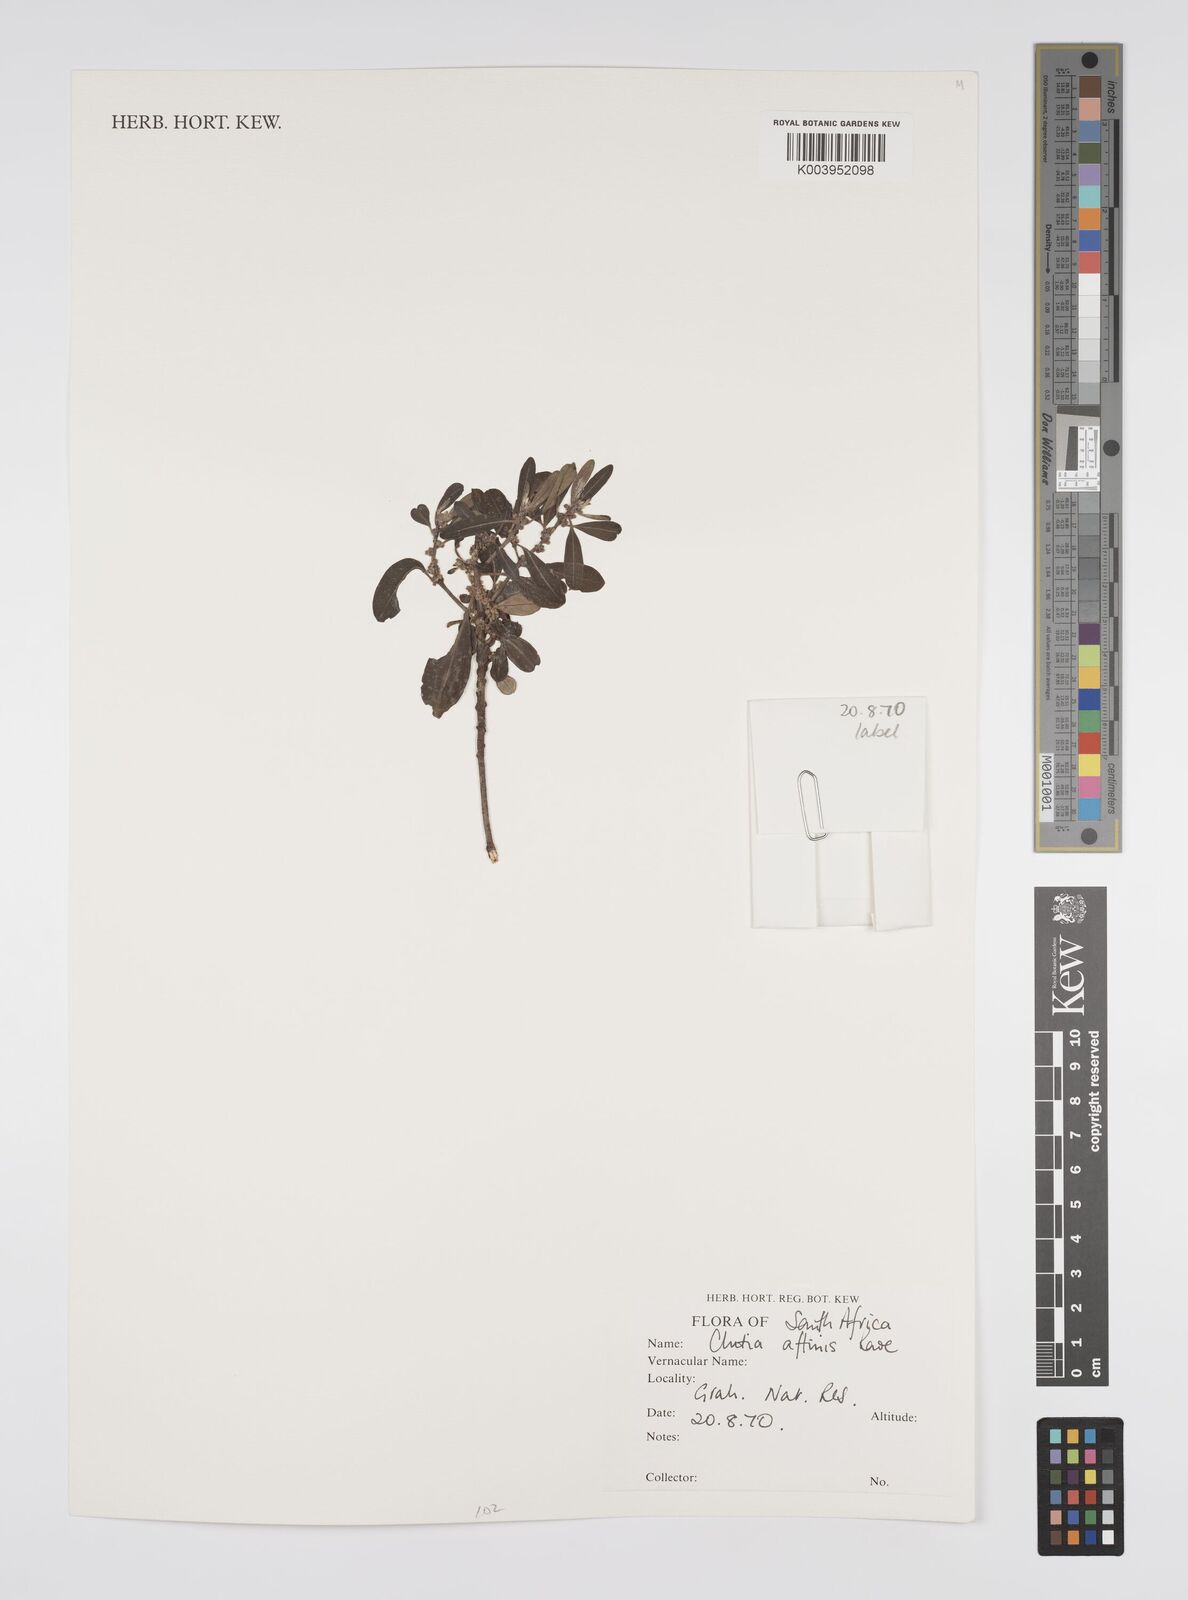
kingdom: Plantae
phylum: Tracheophyta
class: Magnoliopsida
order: Malpighiales
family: Peraceae
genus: Clutia
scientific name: Clutia affinis
